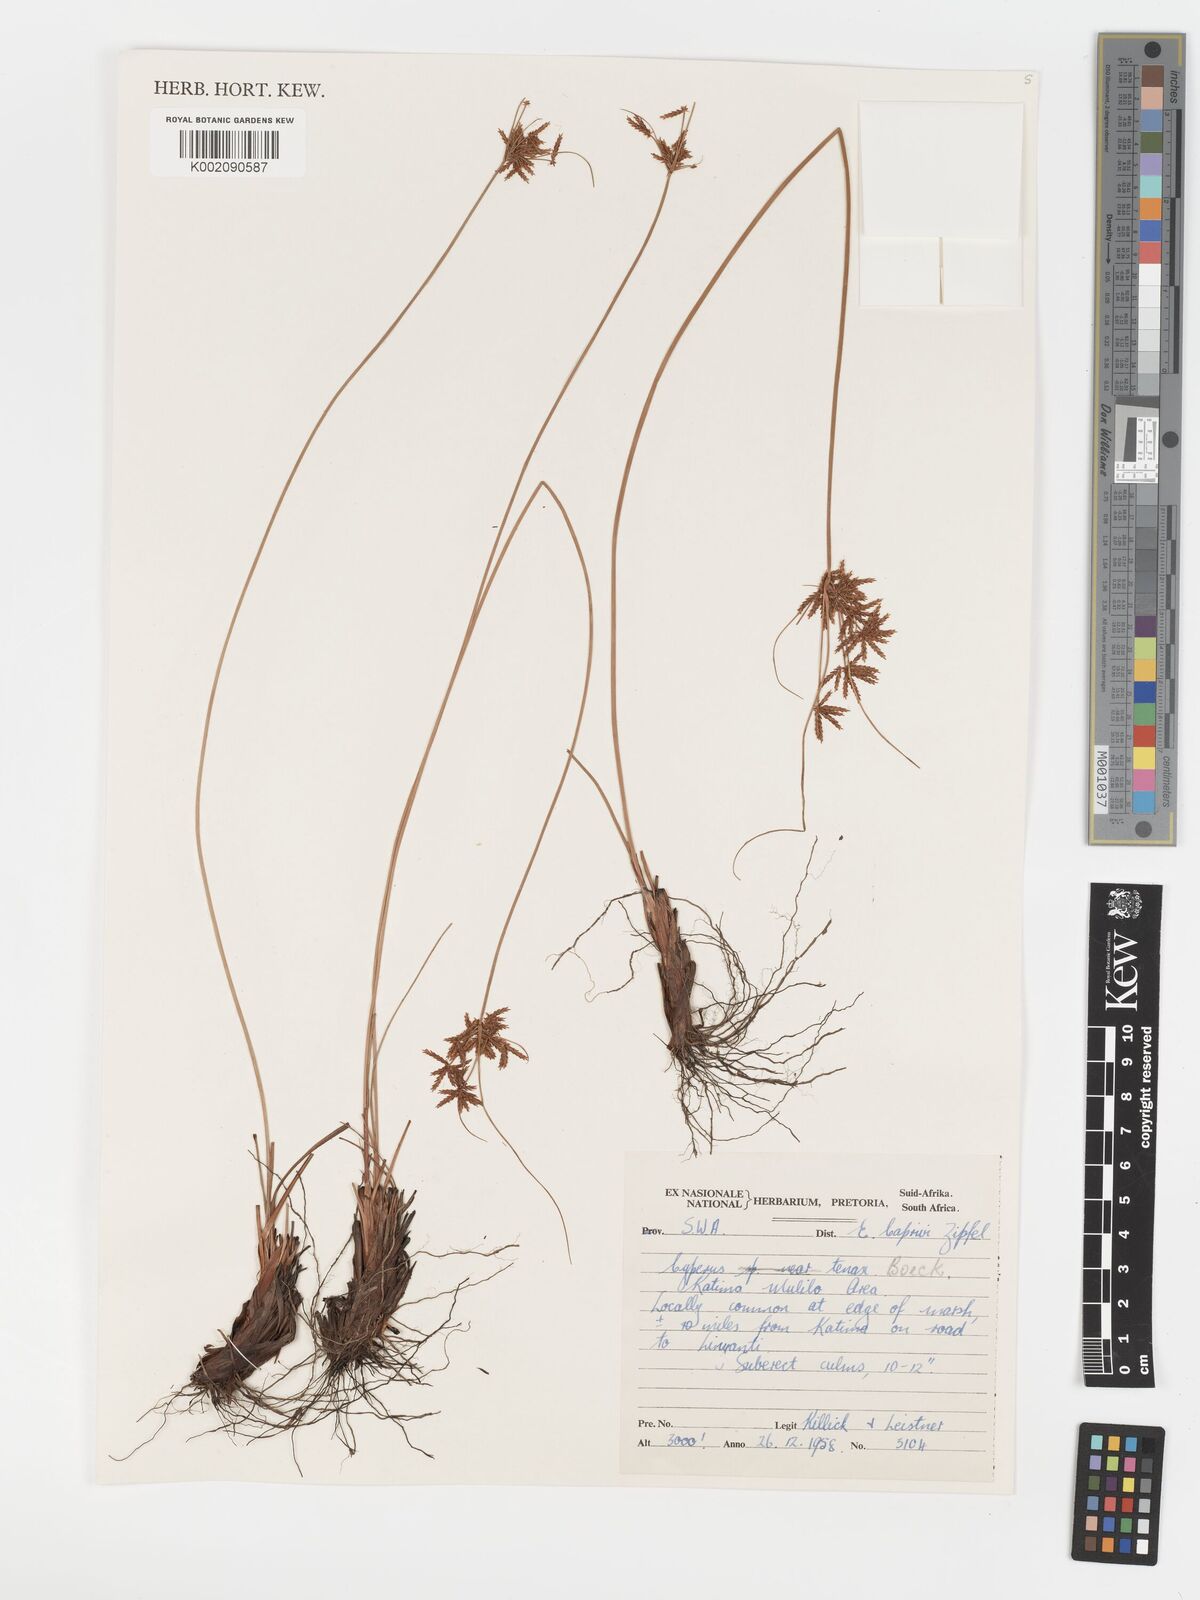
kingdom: Plantae
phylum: Tracheophyta
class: Liliopsida
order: Poales
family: Cyperaceae
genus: Cyperus
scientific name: Cyperus tenax
